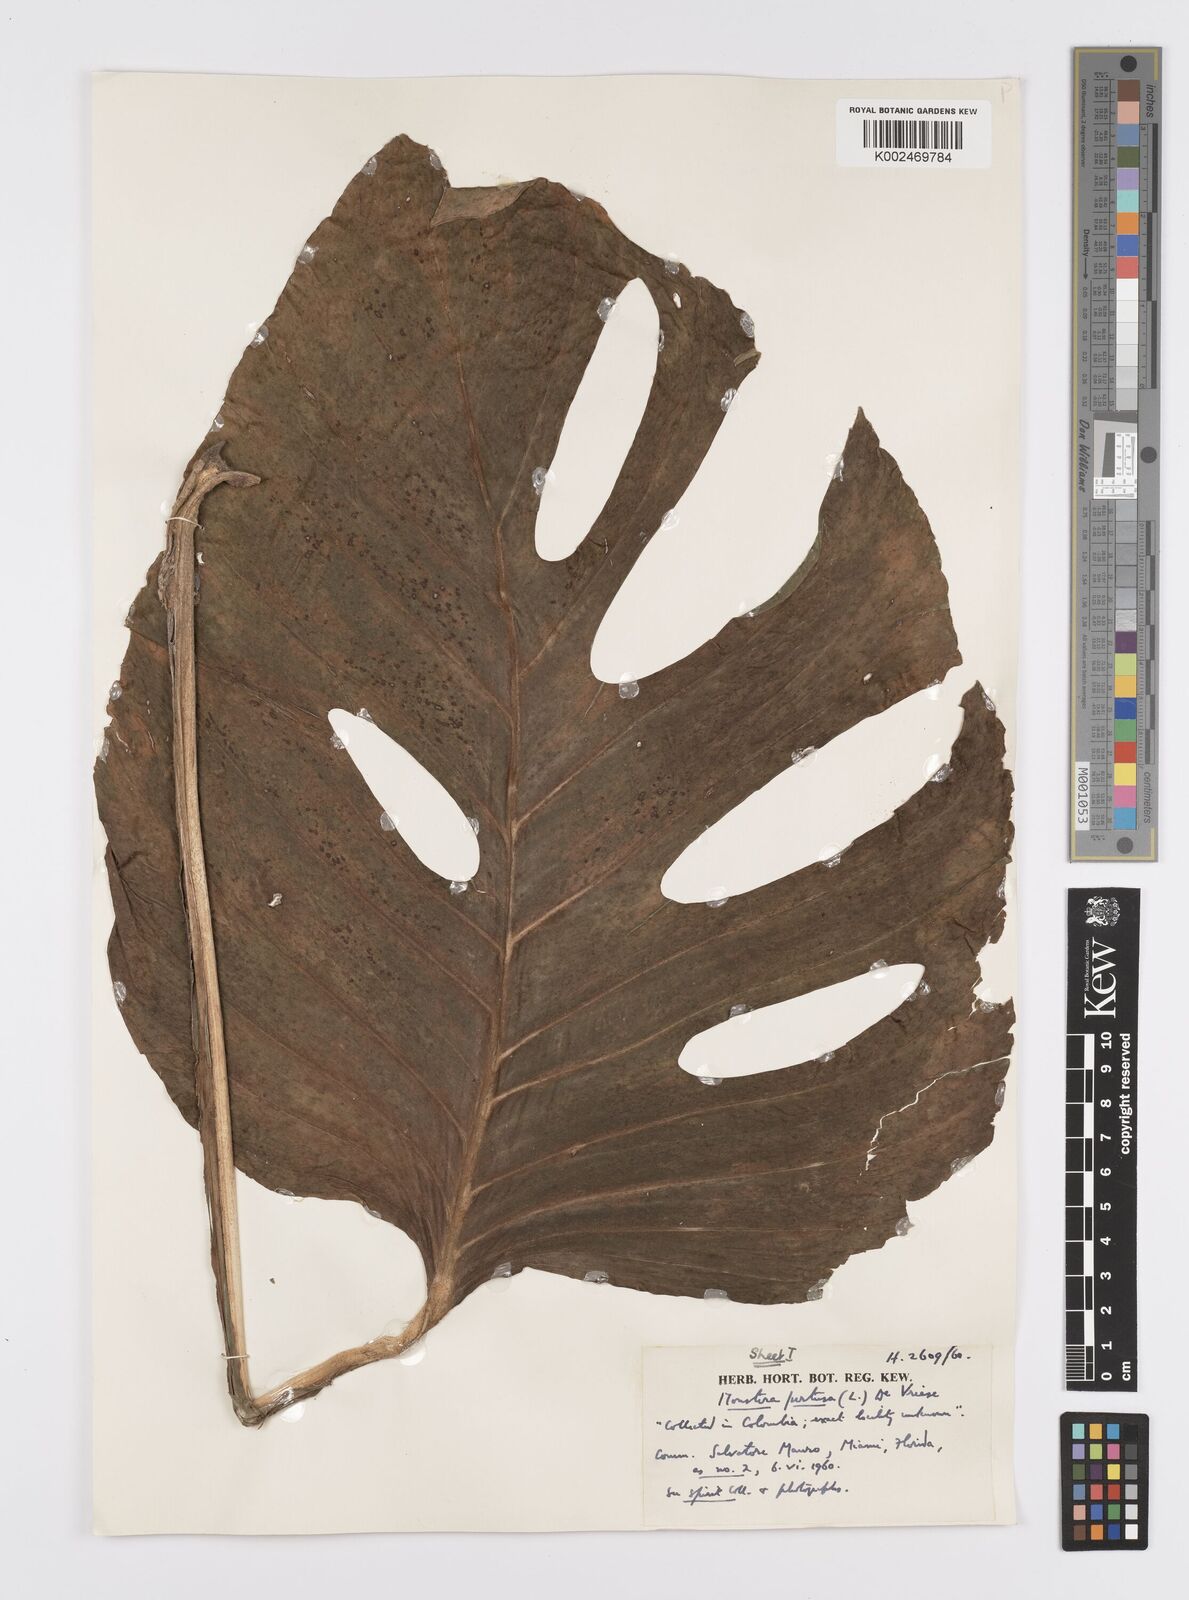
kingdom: Plantae
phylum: Tracheophyta
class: Liliopsida
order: Alismatales
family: Araceae
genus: Monstera
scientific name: Monstera adansonii
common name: Tarovine
